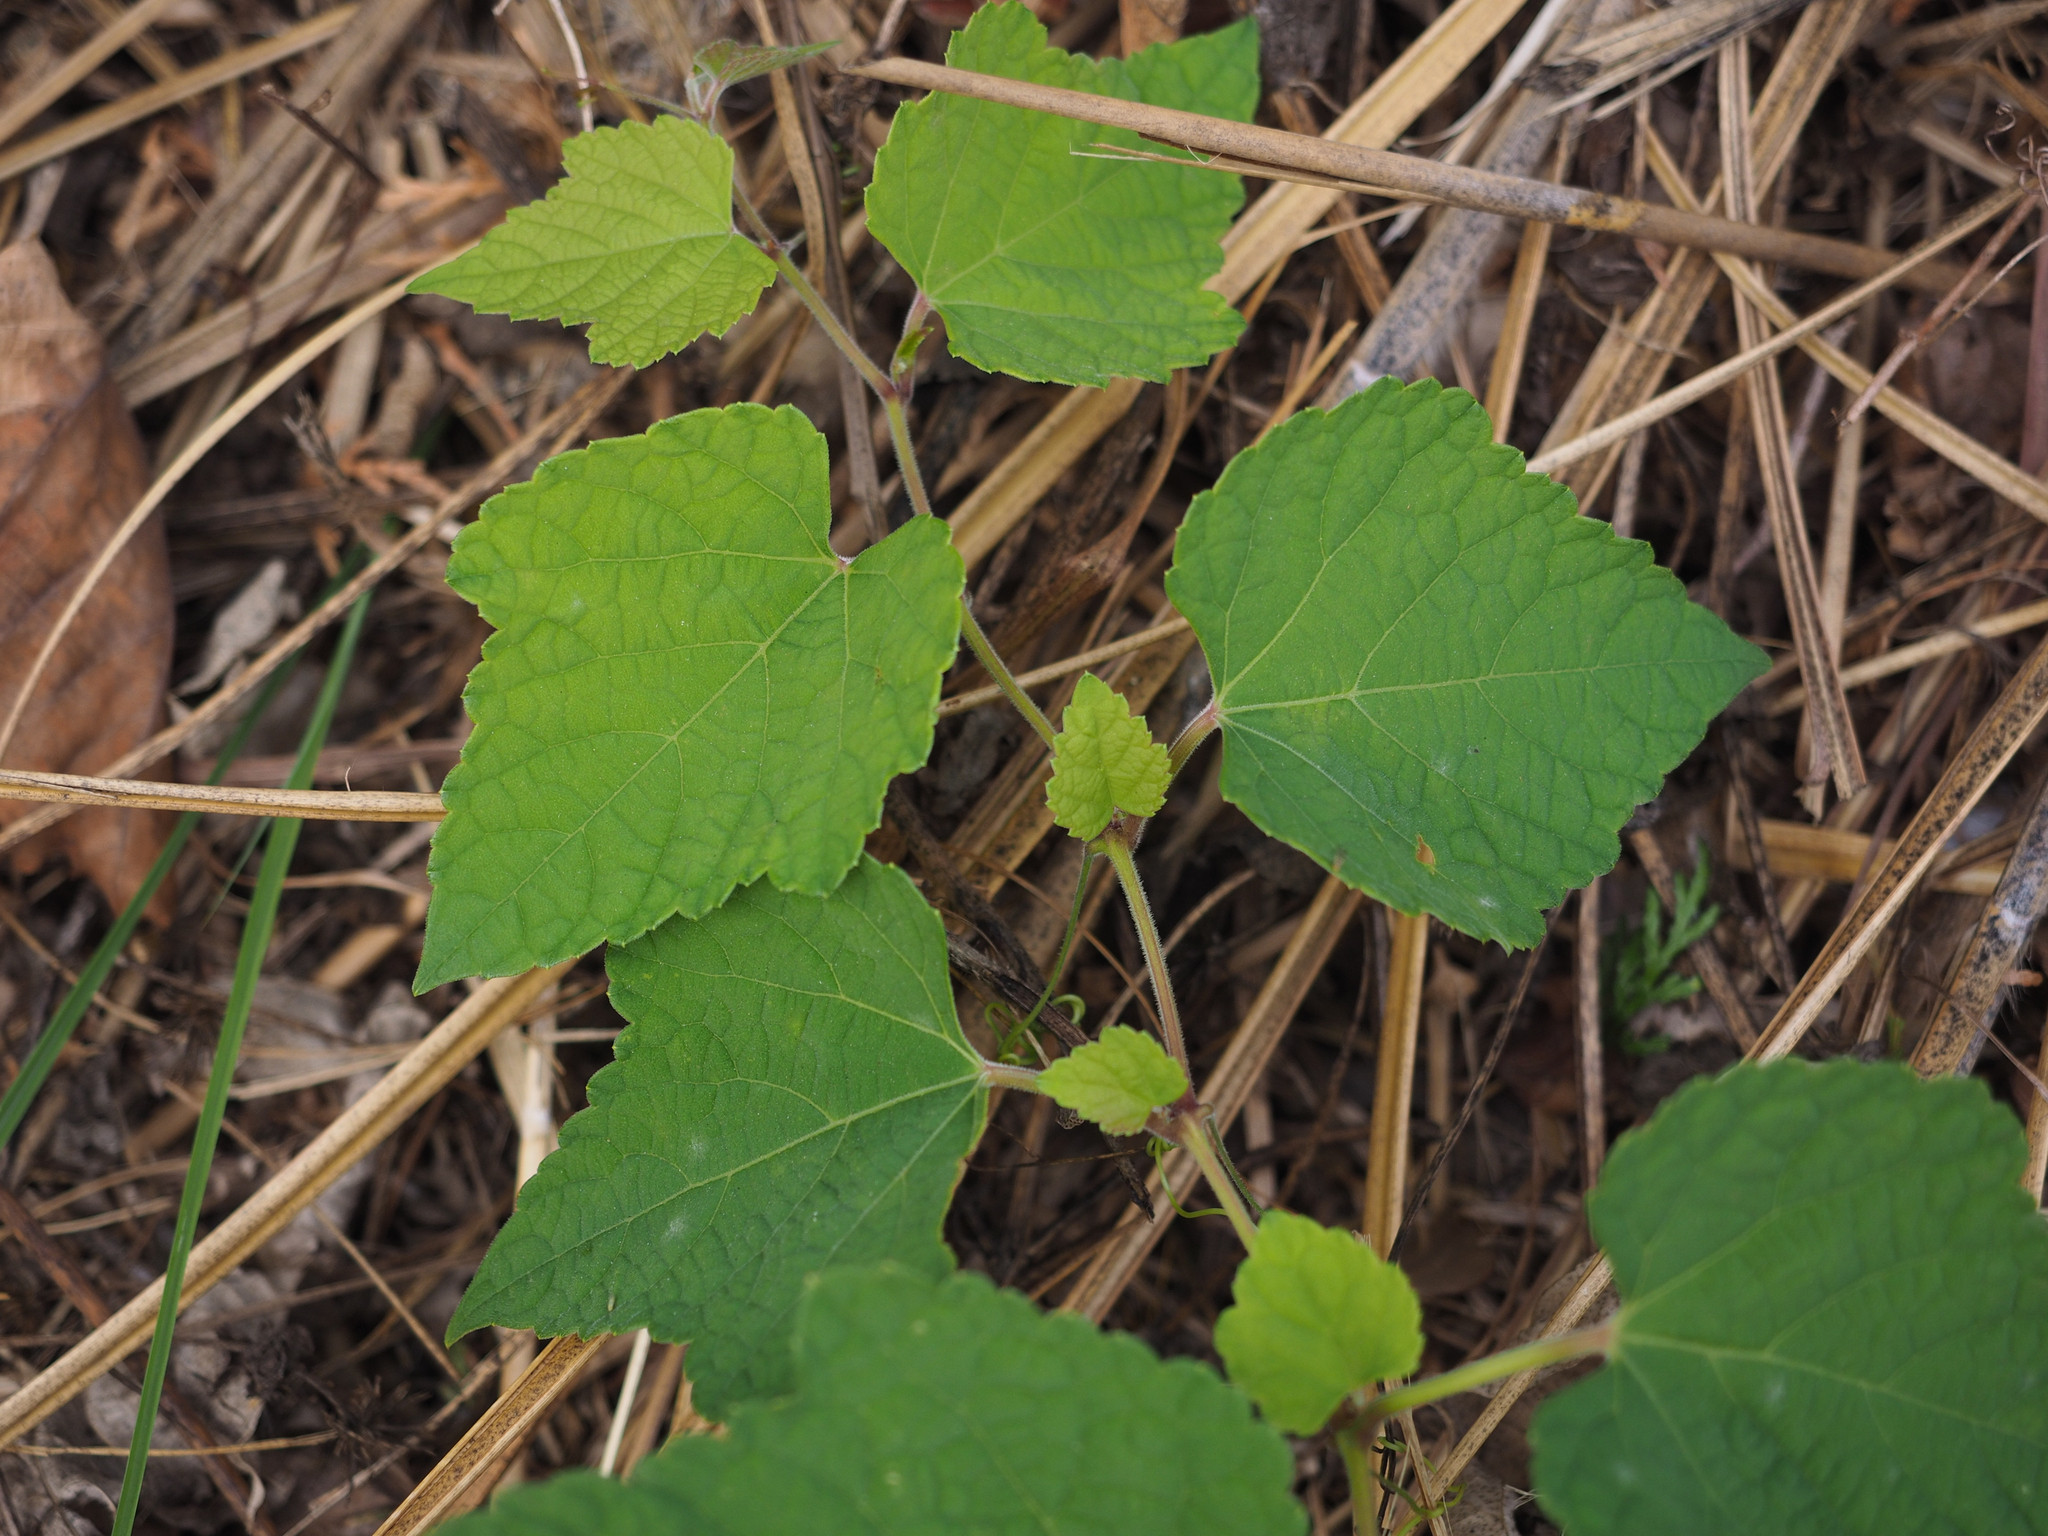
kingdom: Plantae
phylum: Tracheophyta
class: Magnoliopsida
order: Vitales
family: Vitaceae
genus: Ampelopsis
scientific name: Ampelopsis glandulosa
